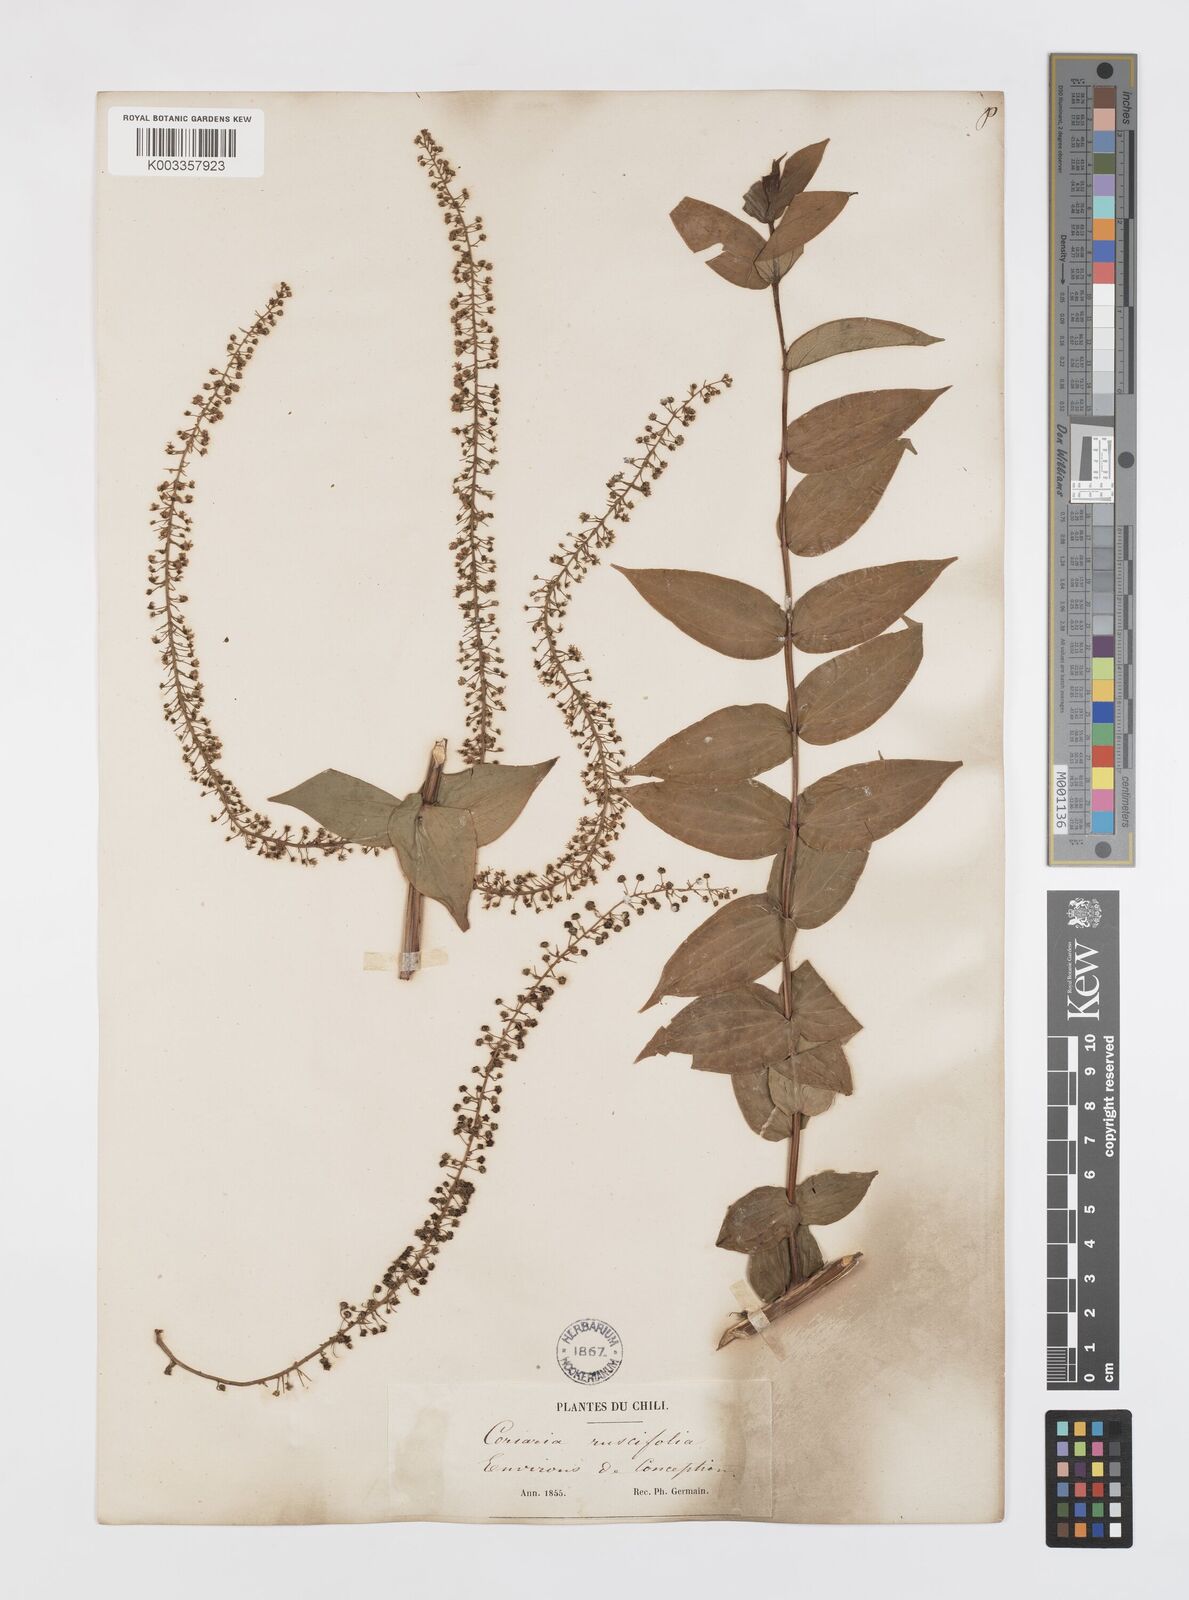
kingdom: Plantae
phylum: Tracheophyta
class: Magnoliopsida
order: Cucurbitales
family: Coriariaceae
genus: Coriaria
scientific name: Coriaria ruscifolia
